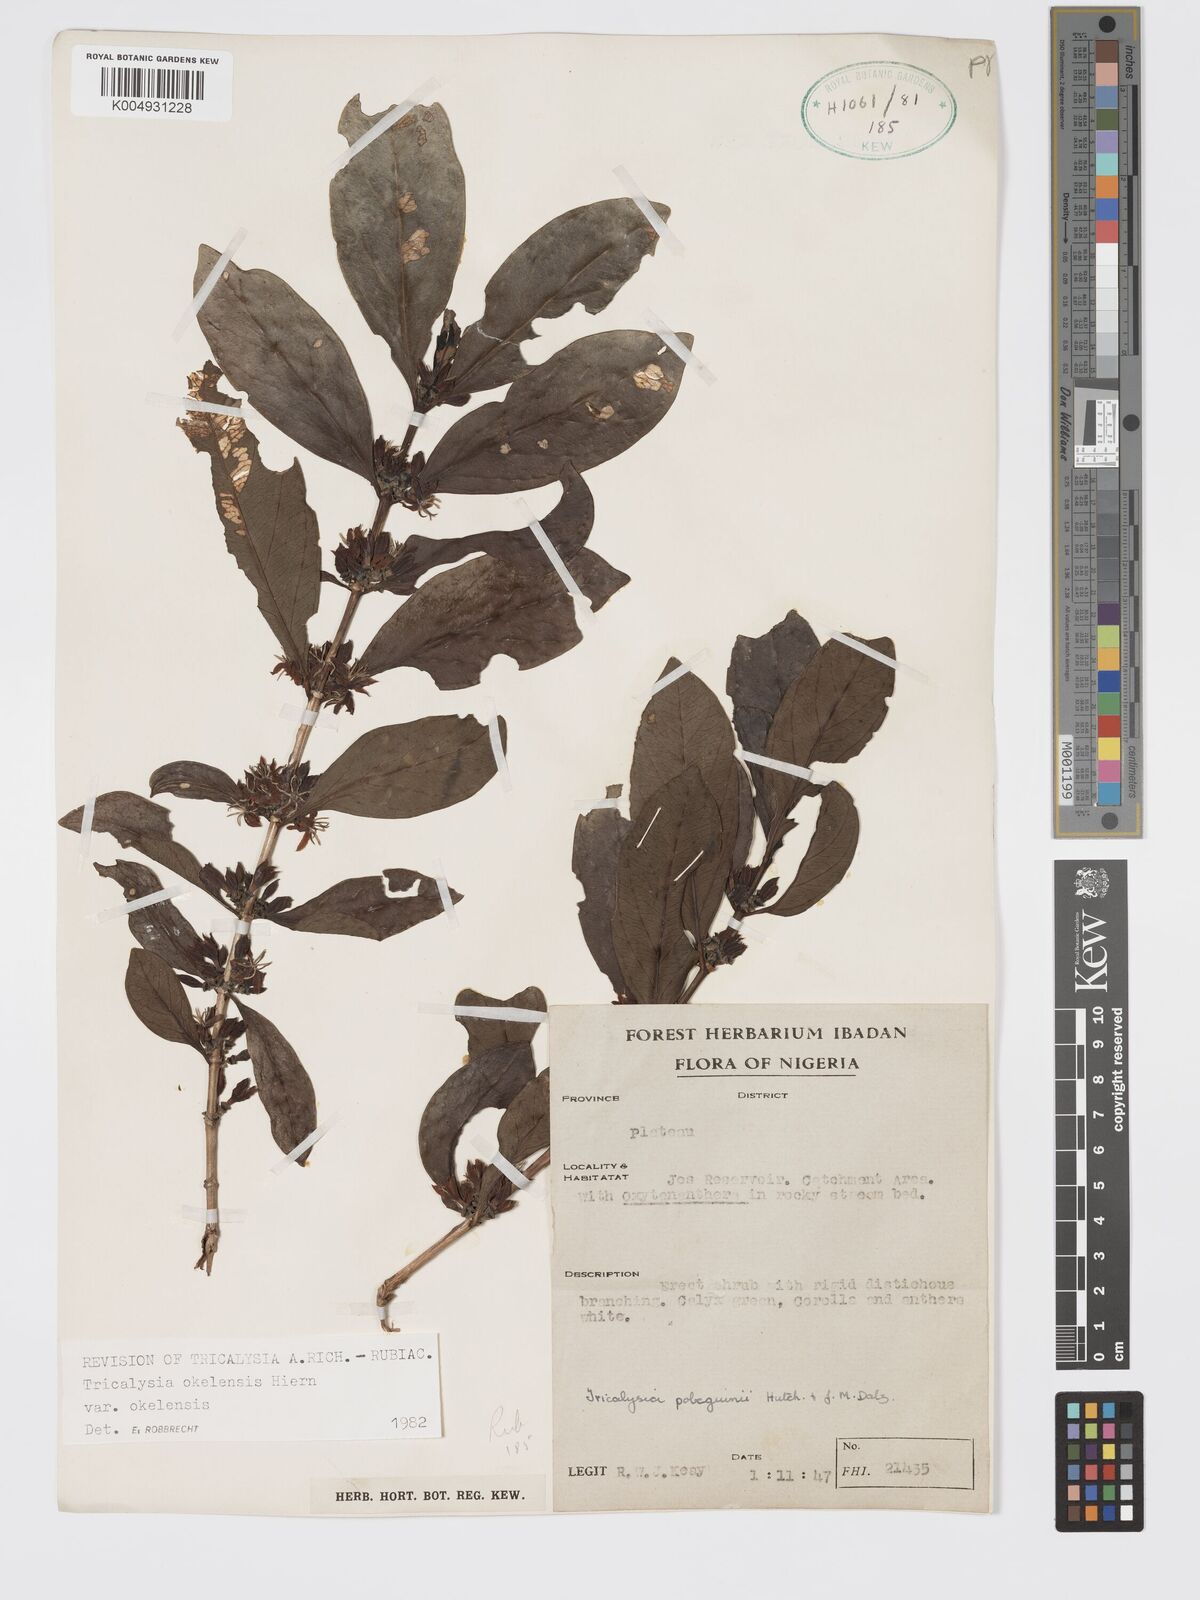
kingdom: Plantae
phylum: Tracheophyta
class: Magnoliopsida
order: Gentianales
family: Rubiaceae
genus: Tricalysia
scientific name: Tricalysia okelensis
